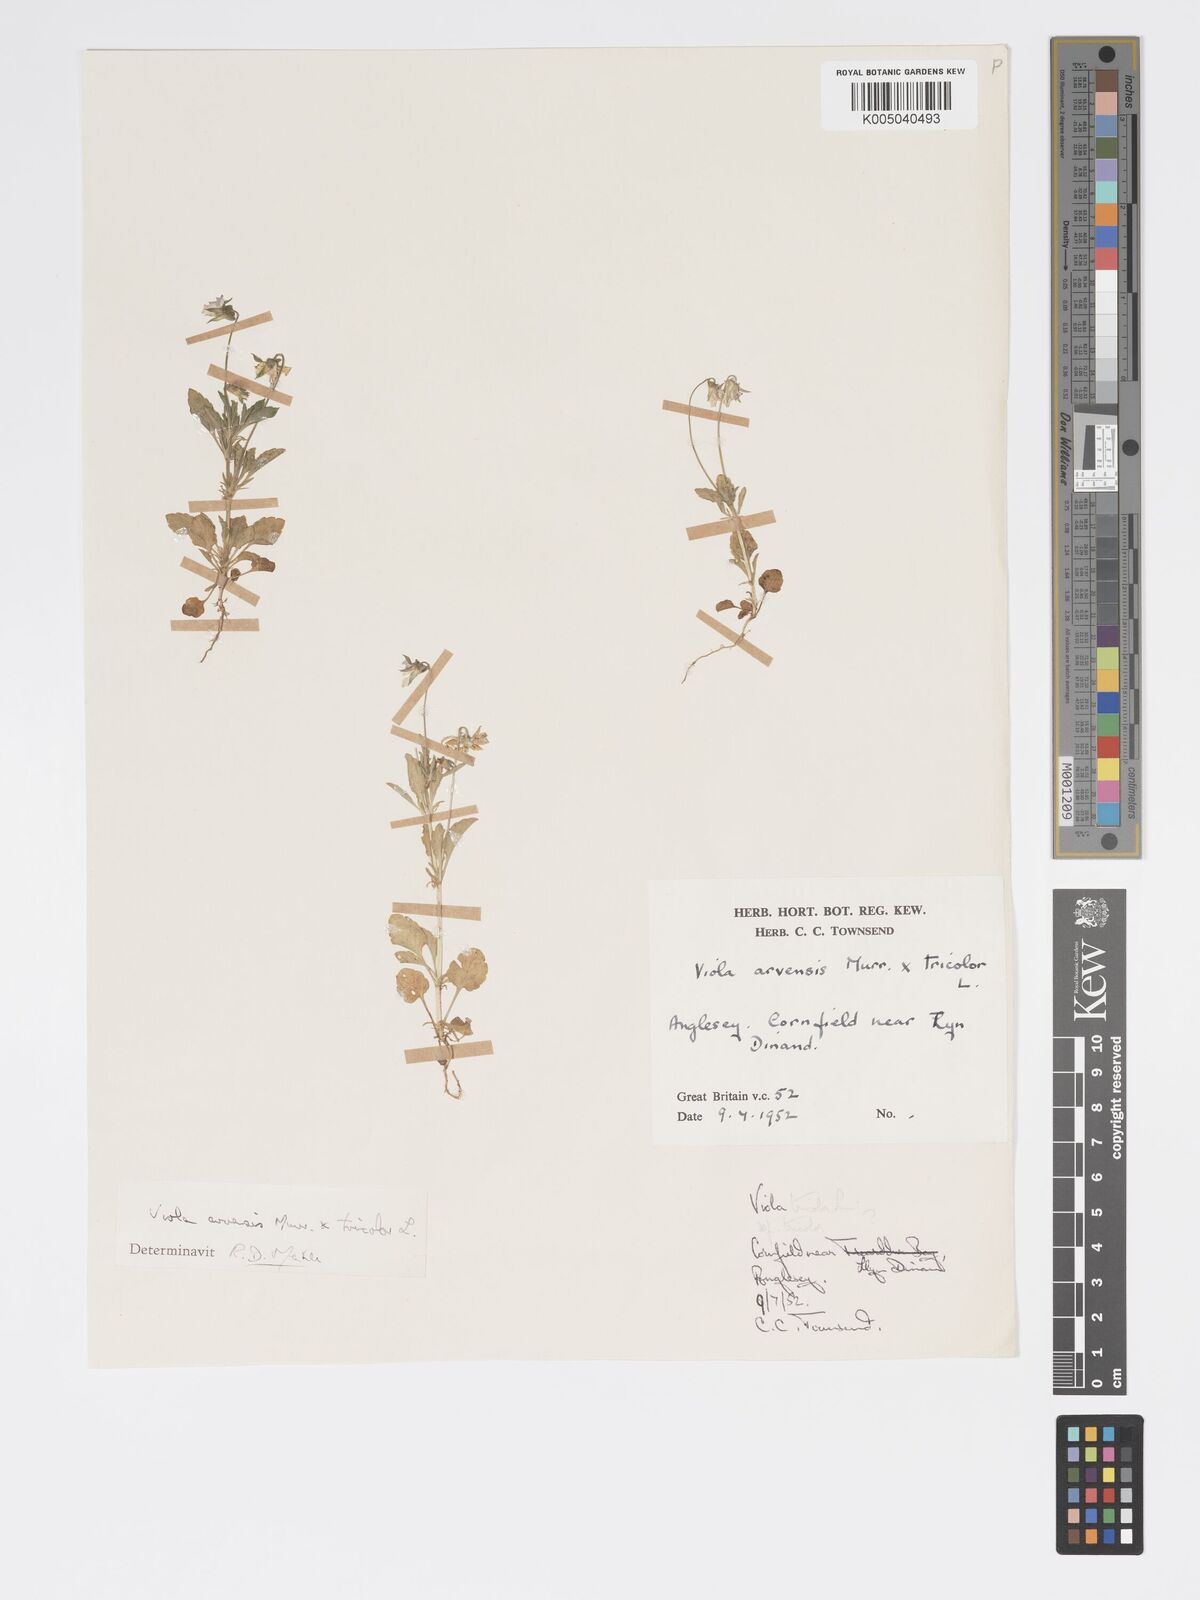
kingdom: Plantae
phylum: Tracheophyta
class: Magnoliopsida
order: Malpighiales
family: Violaceae
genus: Viola
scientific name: Viola arvensis
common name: Field pansy
